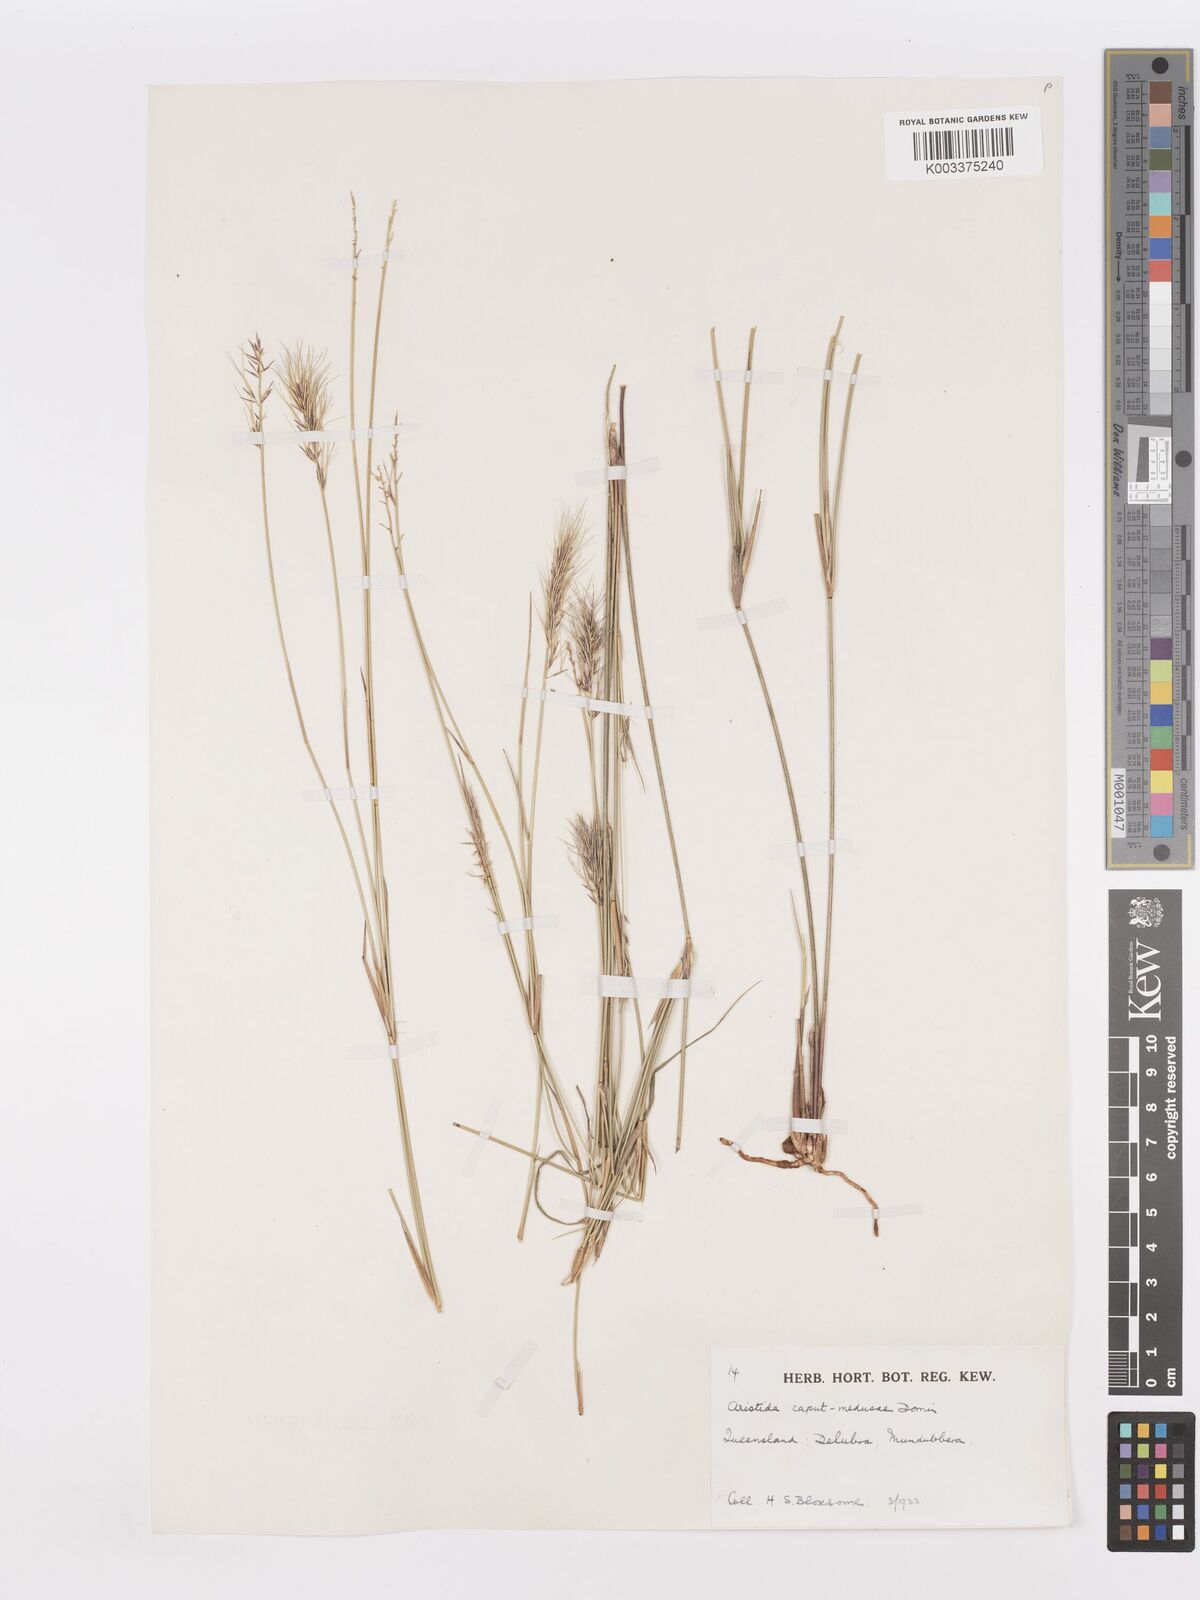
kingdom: Plantae
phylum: Tracheophyta
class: Liliopsida
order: Poales
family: Poaceae
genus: Aristida
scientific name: Aristida caput-medusae
